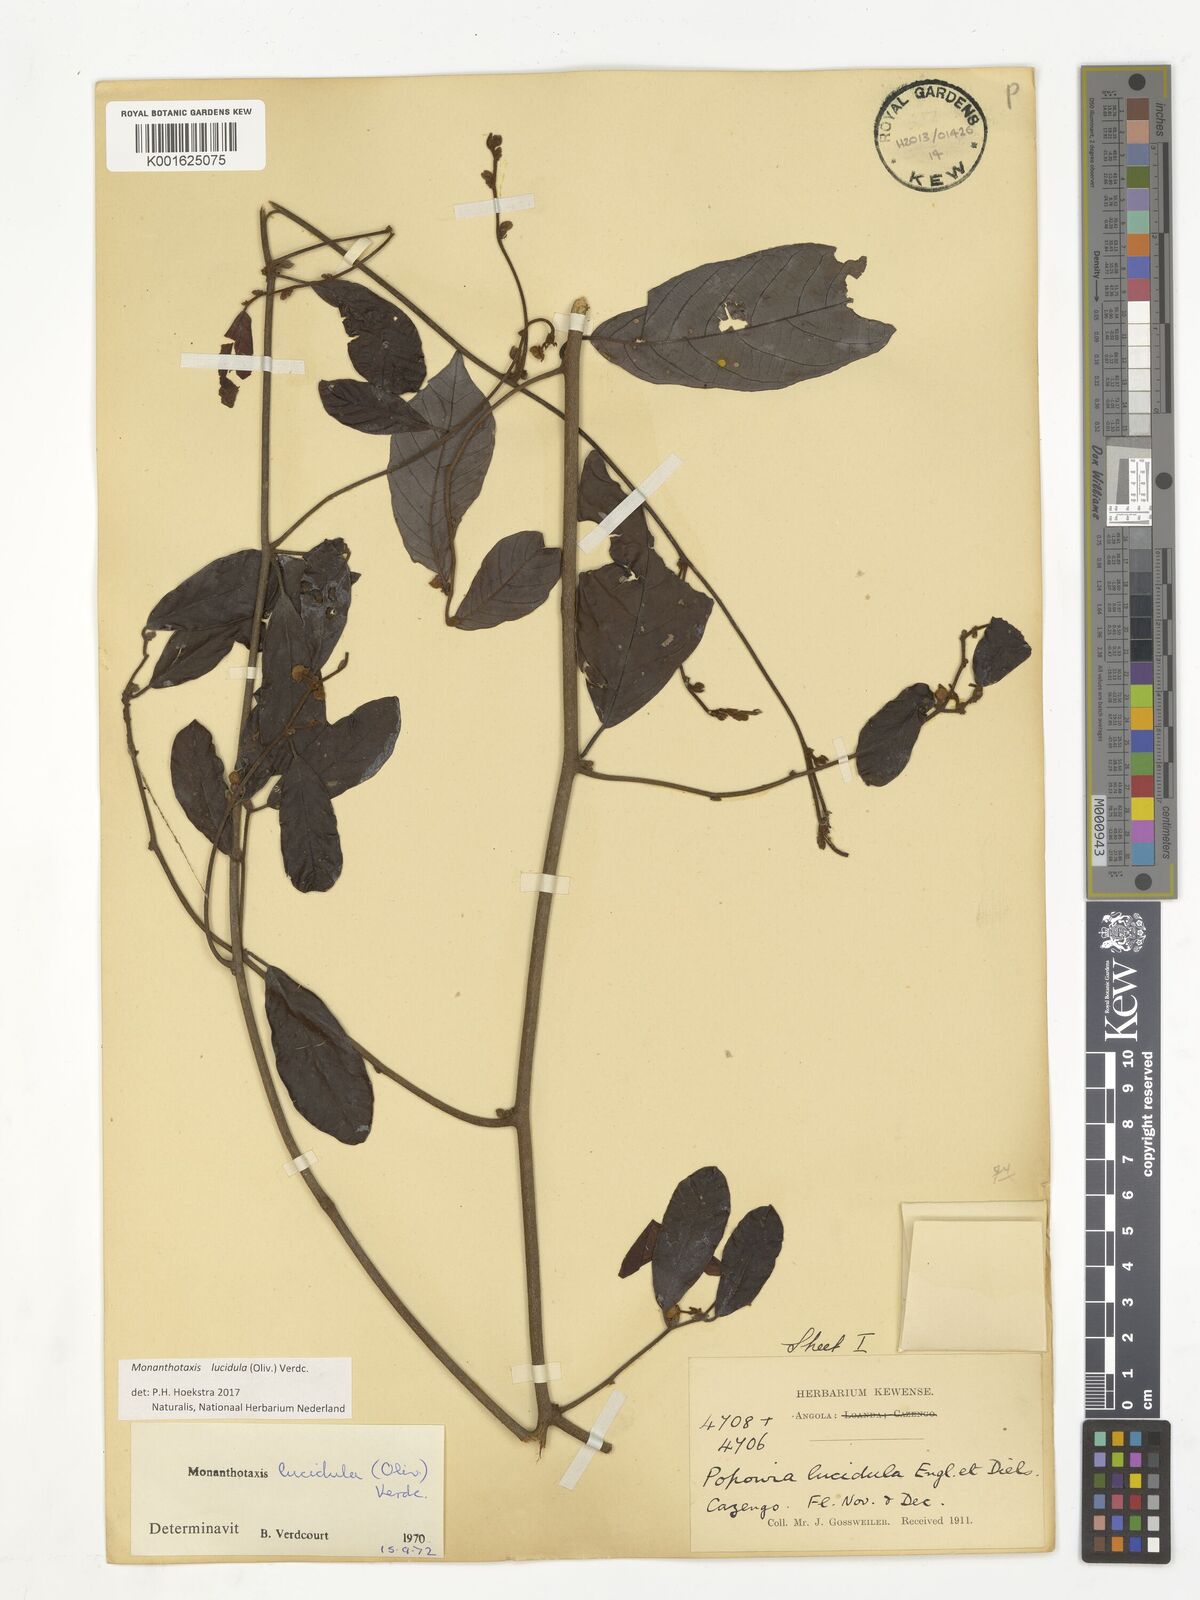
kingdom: Plantae
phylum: Tracheophyta
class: Magnoliopsida
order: Magnoliales
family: Annonaceae
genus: Monanthotaxis
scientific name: Monanthotaxis lucidula
